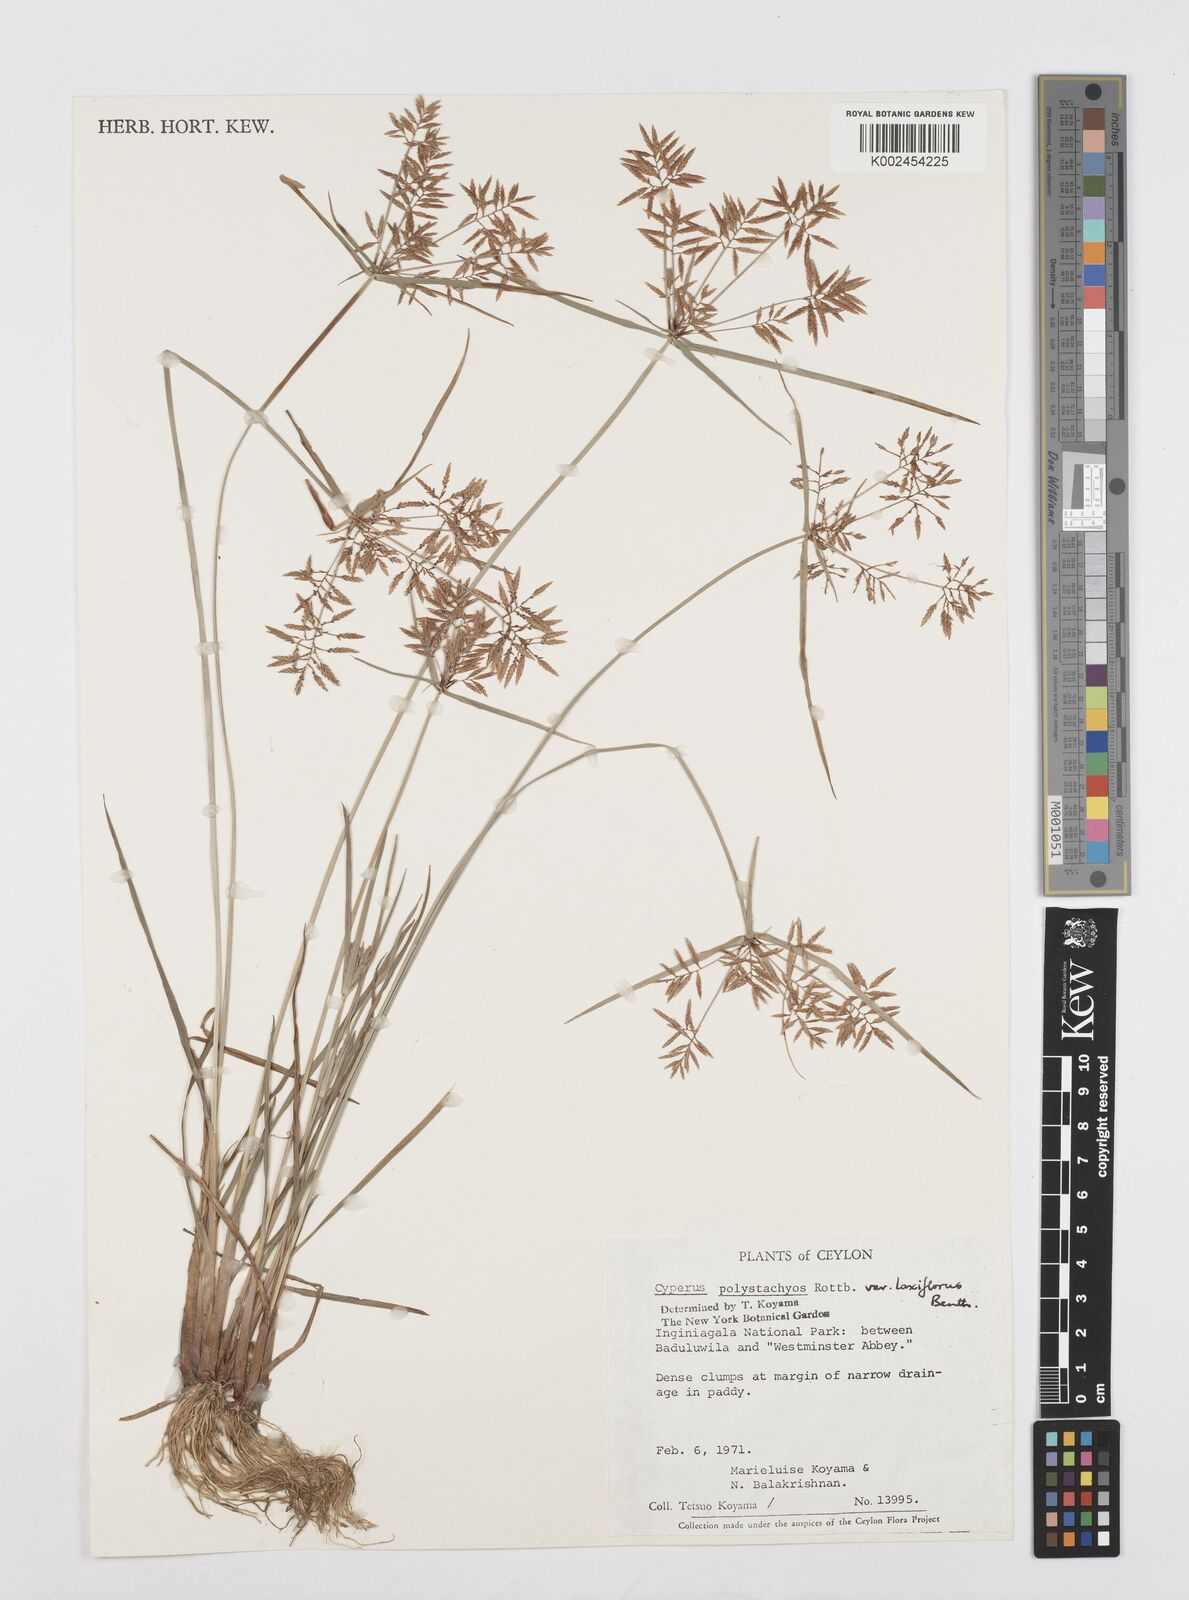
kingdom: Plantae
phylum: Tracheophyta
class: Liliopsida
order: Poales
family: Cyperaceae
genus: Cyperus
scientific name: Cyperus polystachyos
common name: Bunchy flat sedge
